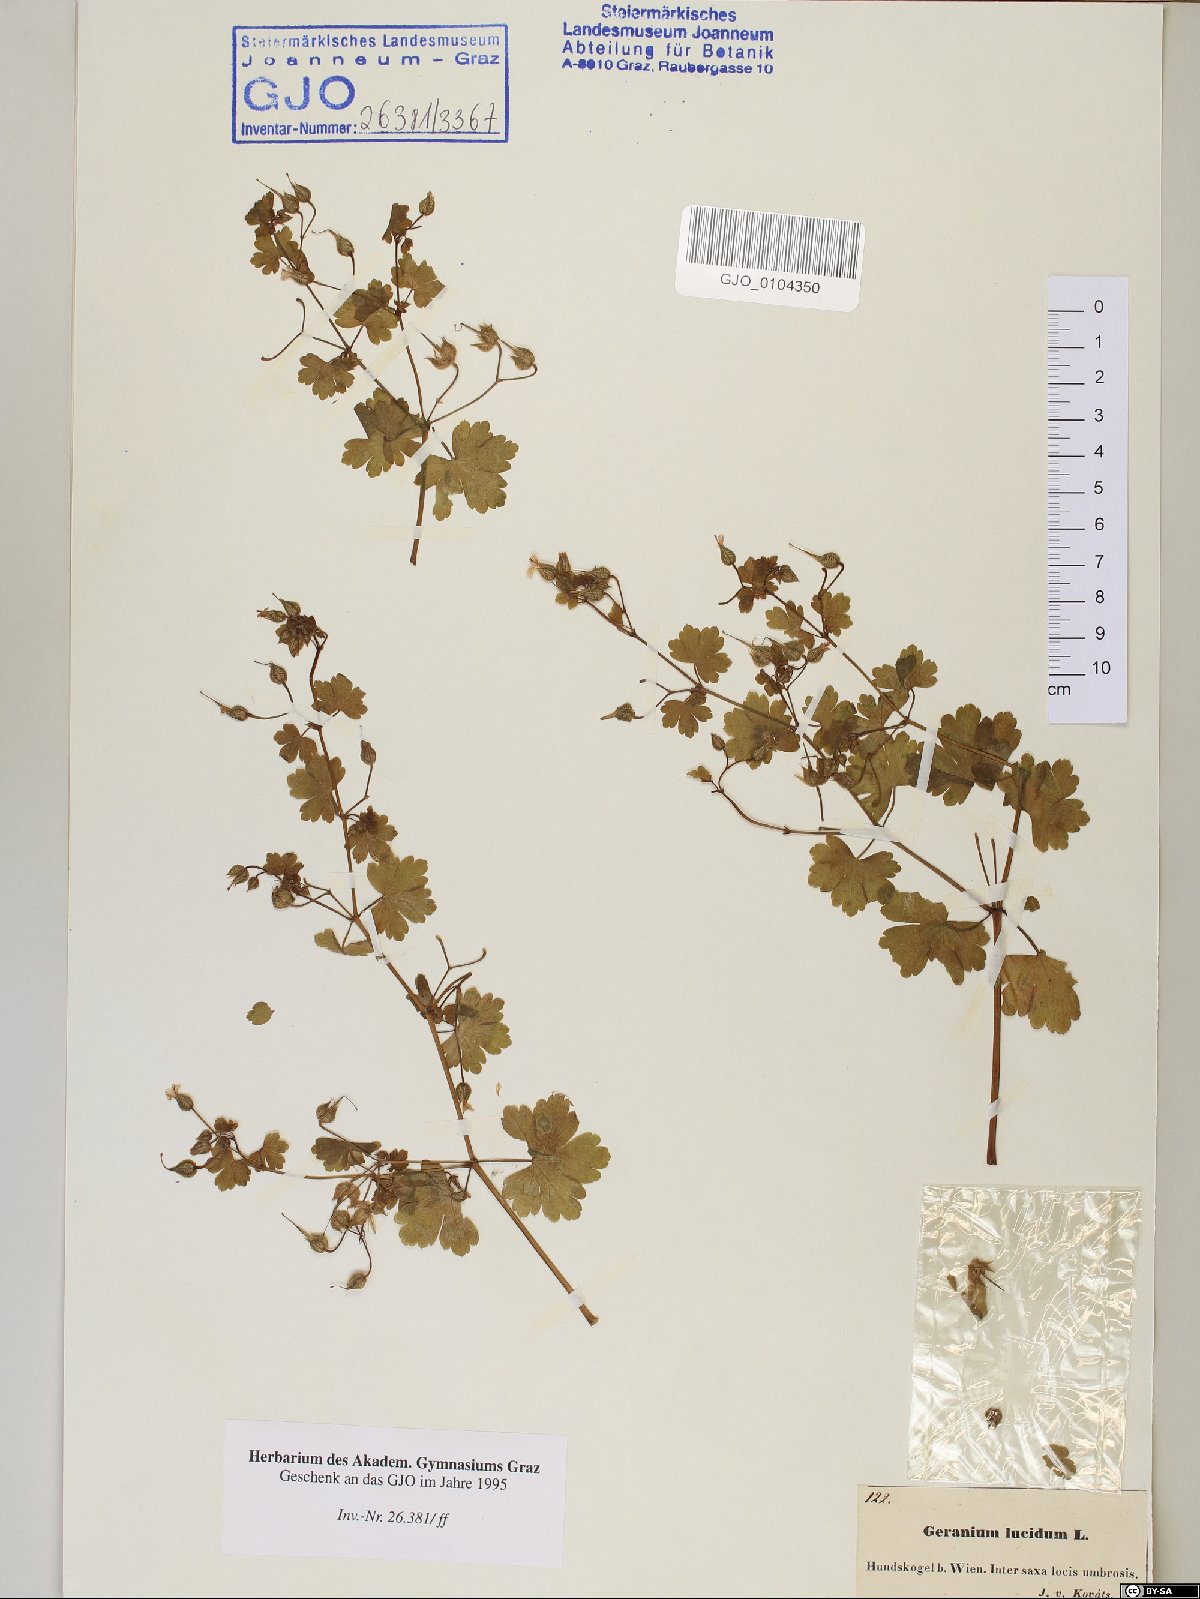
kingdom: Plantae
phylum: Tracheophyta
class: Magnoliopsida
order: Geraniales
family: Geraniaceae
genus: Geranium
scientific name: Geranium lucidum
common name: Shining crane's-bill
